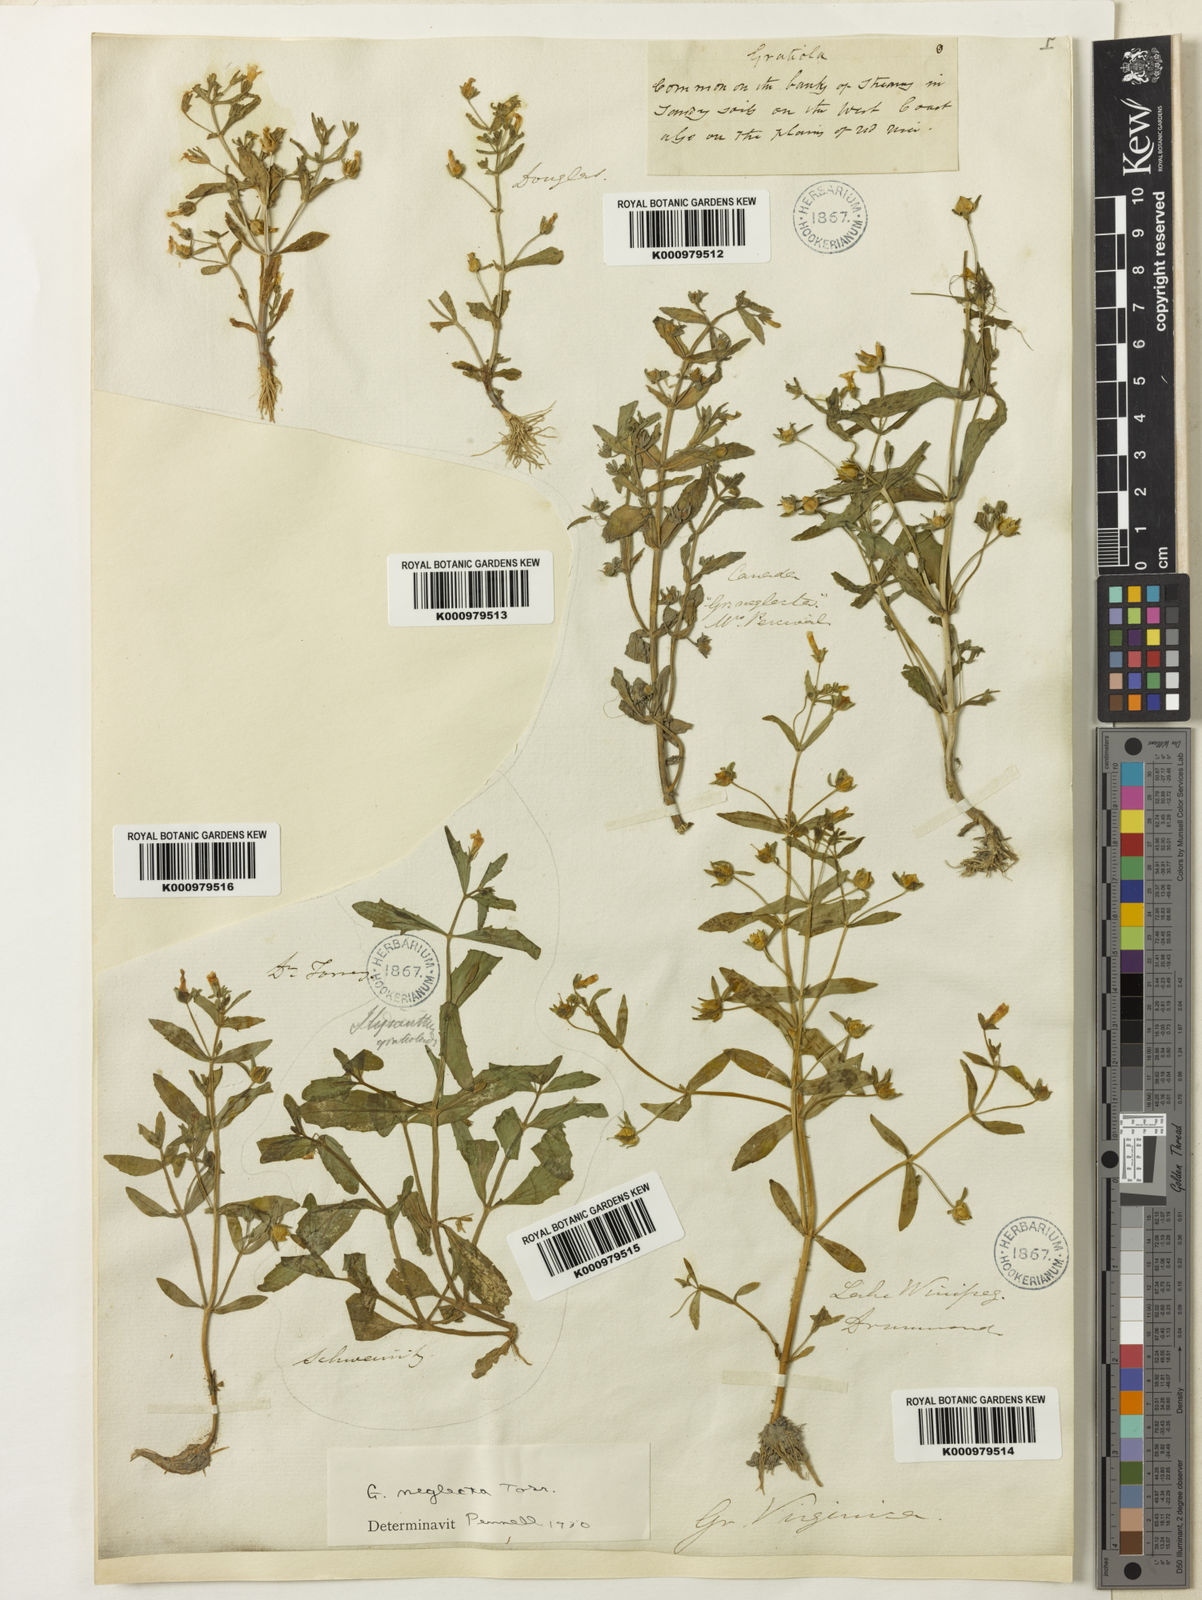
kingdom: Plantae
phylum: Tracheophyta
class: Magnoliopsida
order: Lamiales
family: Plantaginaceae
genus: Gratiola
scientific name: Gratiola neglecta
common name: American hedge-hyssop
